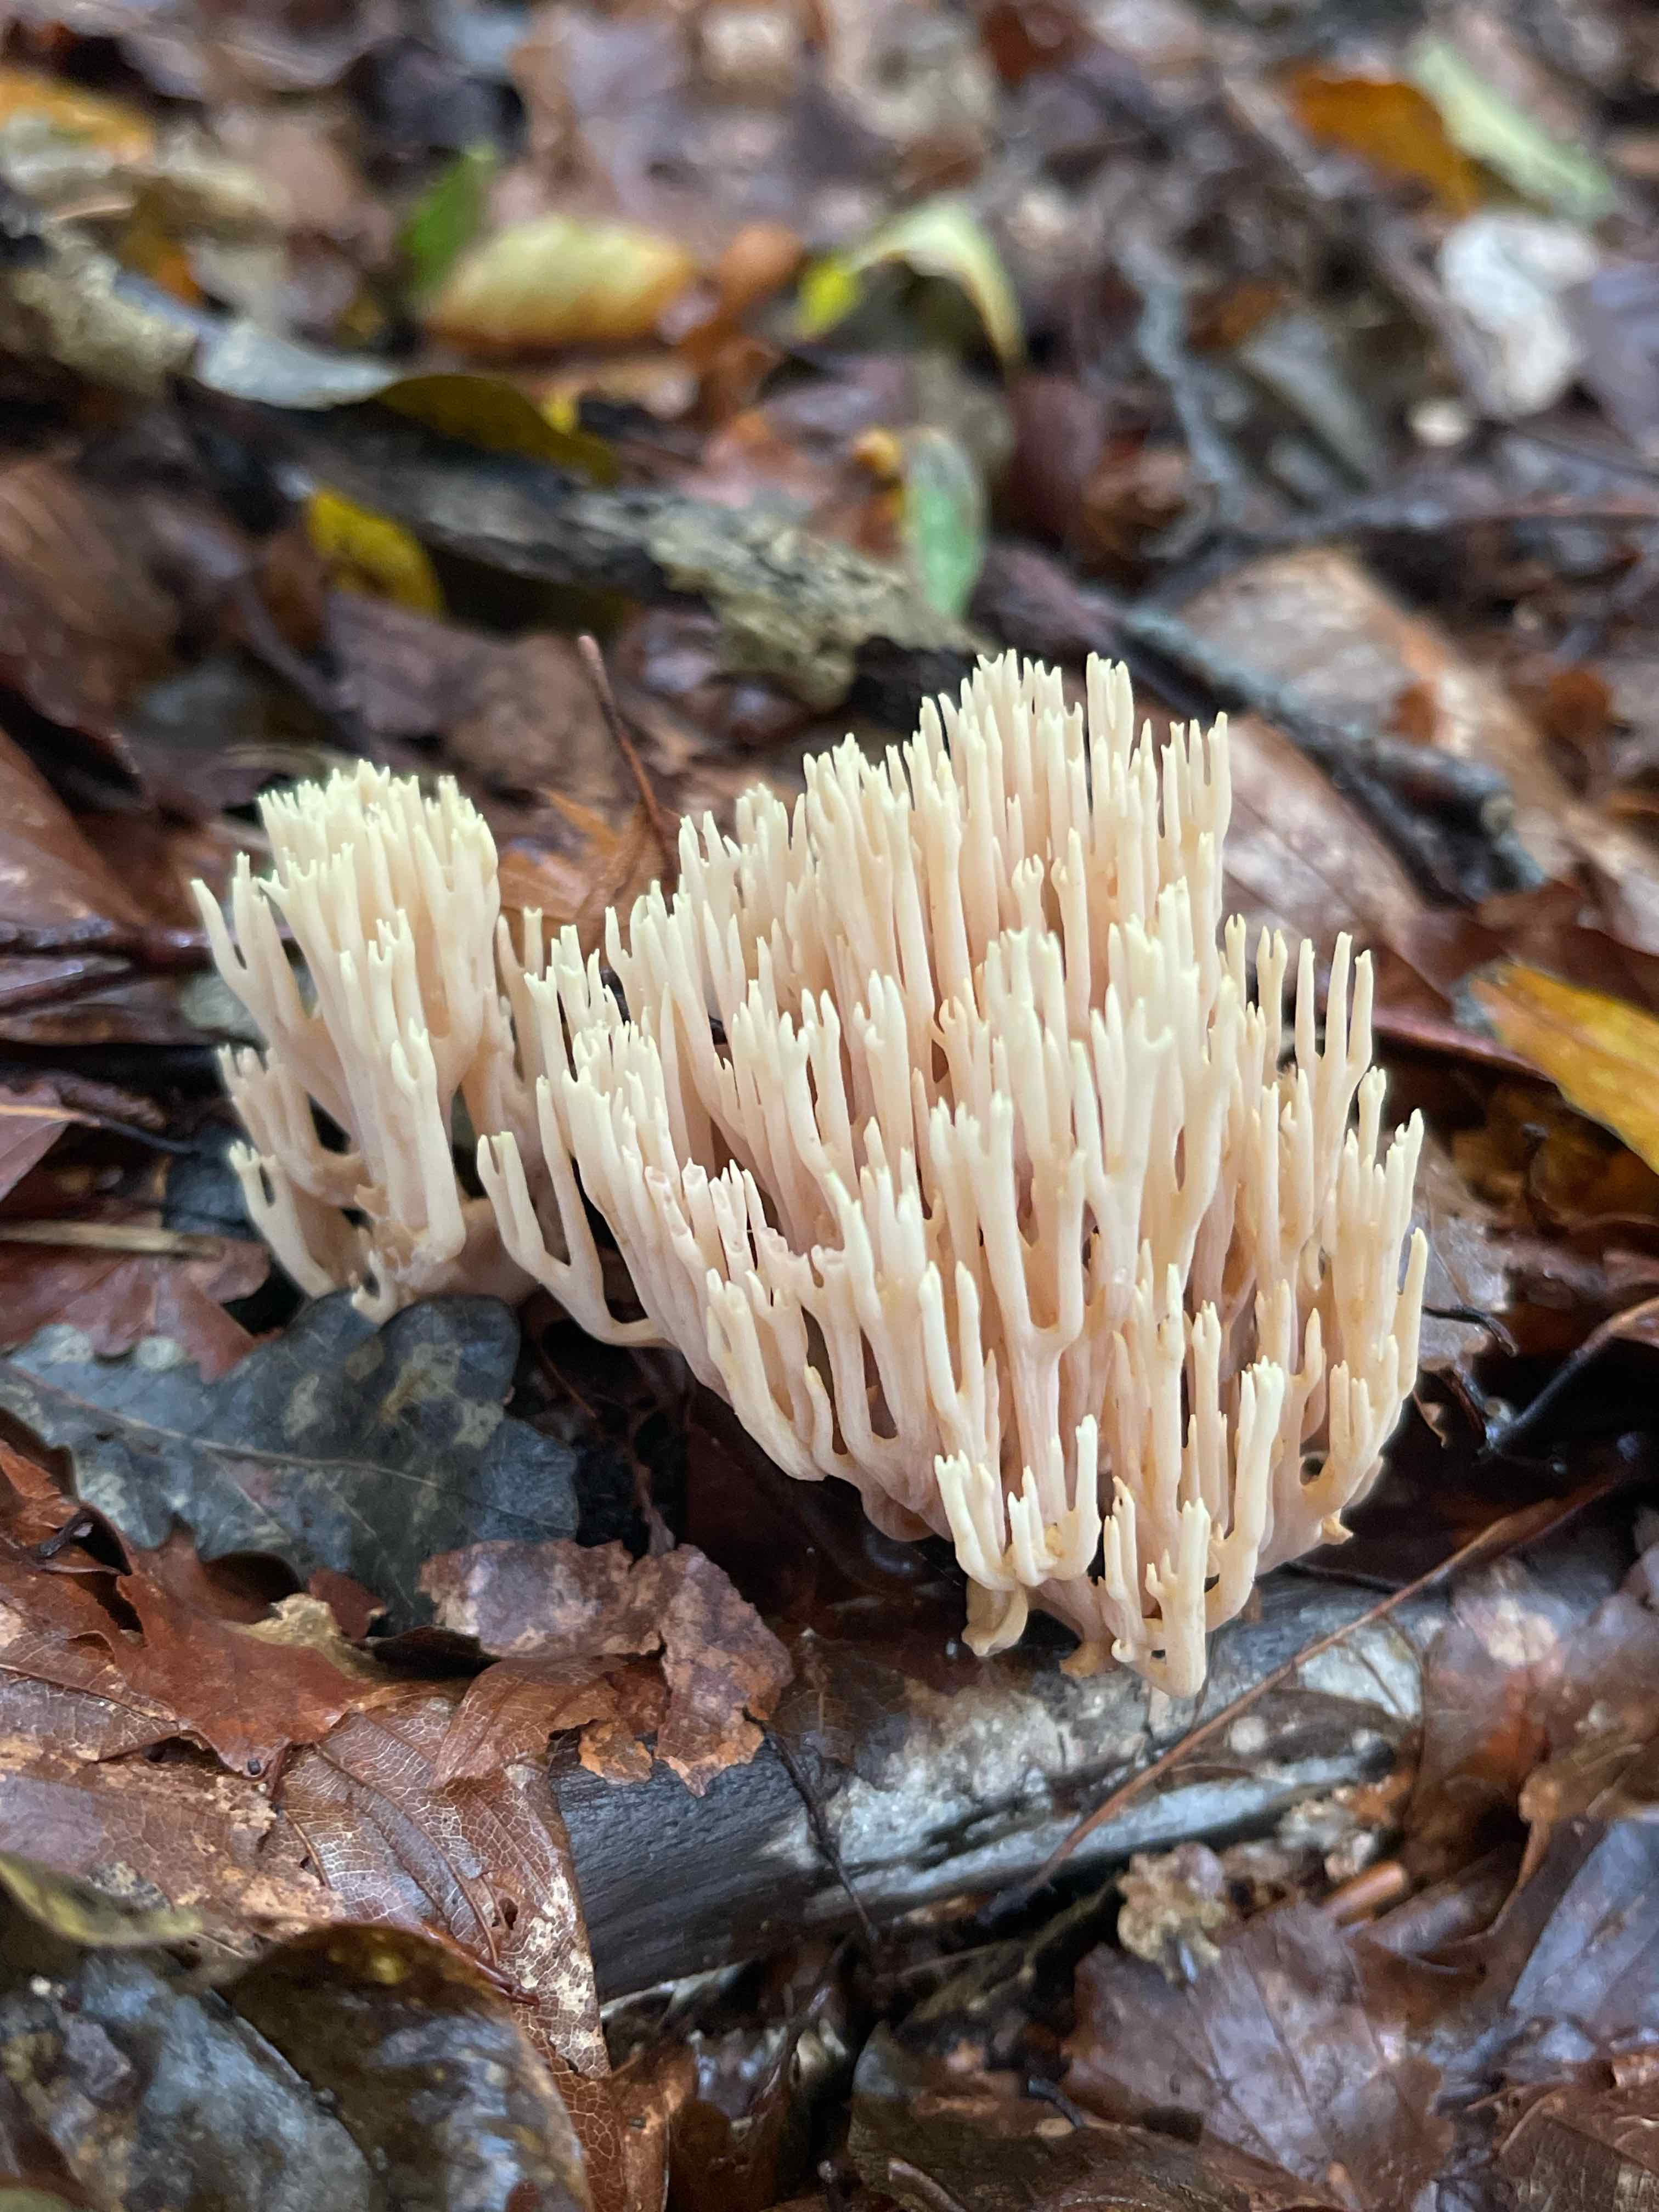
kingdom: Fungi
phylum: Basidiomycota
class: Agaricomycetes
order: Gomphales
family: Gomphaceae
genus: Ramaria
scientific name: Ramaria stricta
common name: rank koralsvamp
